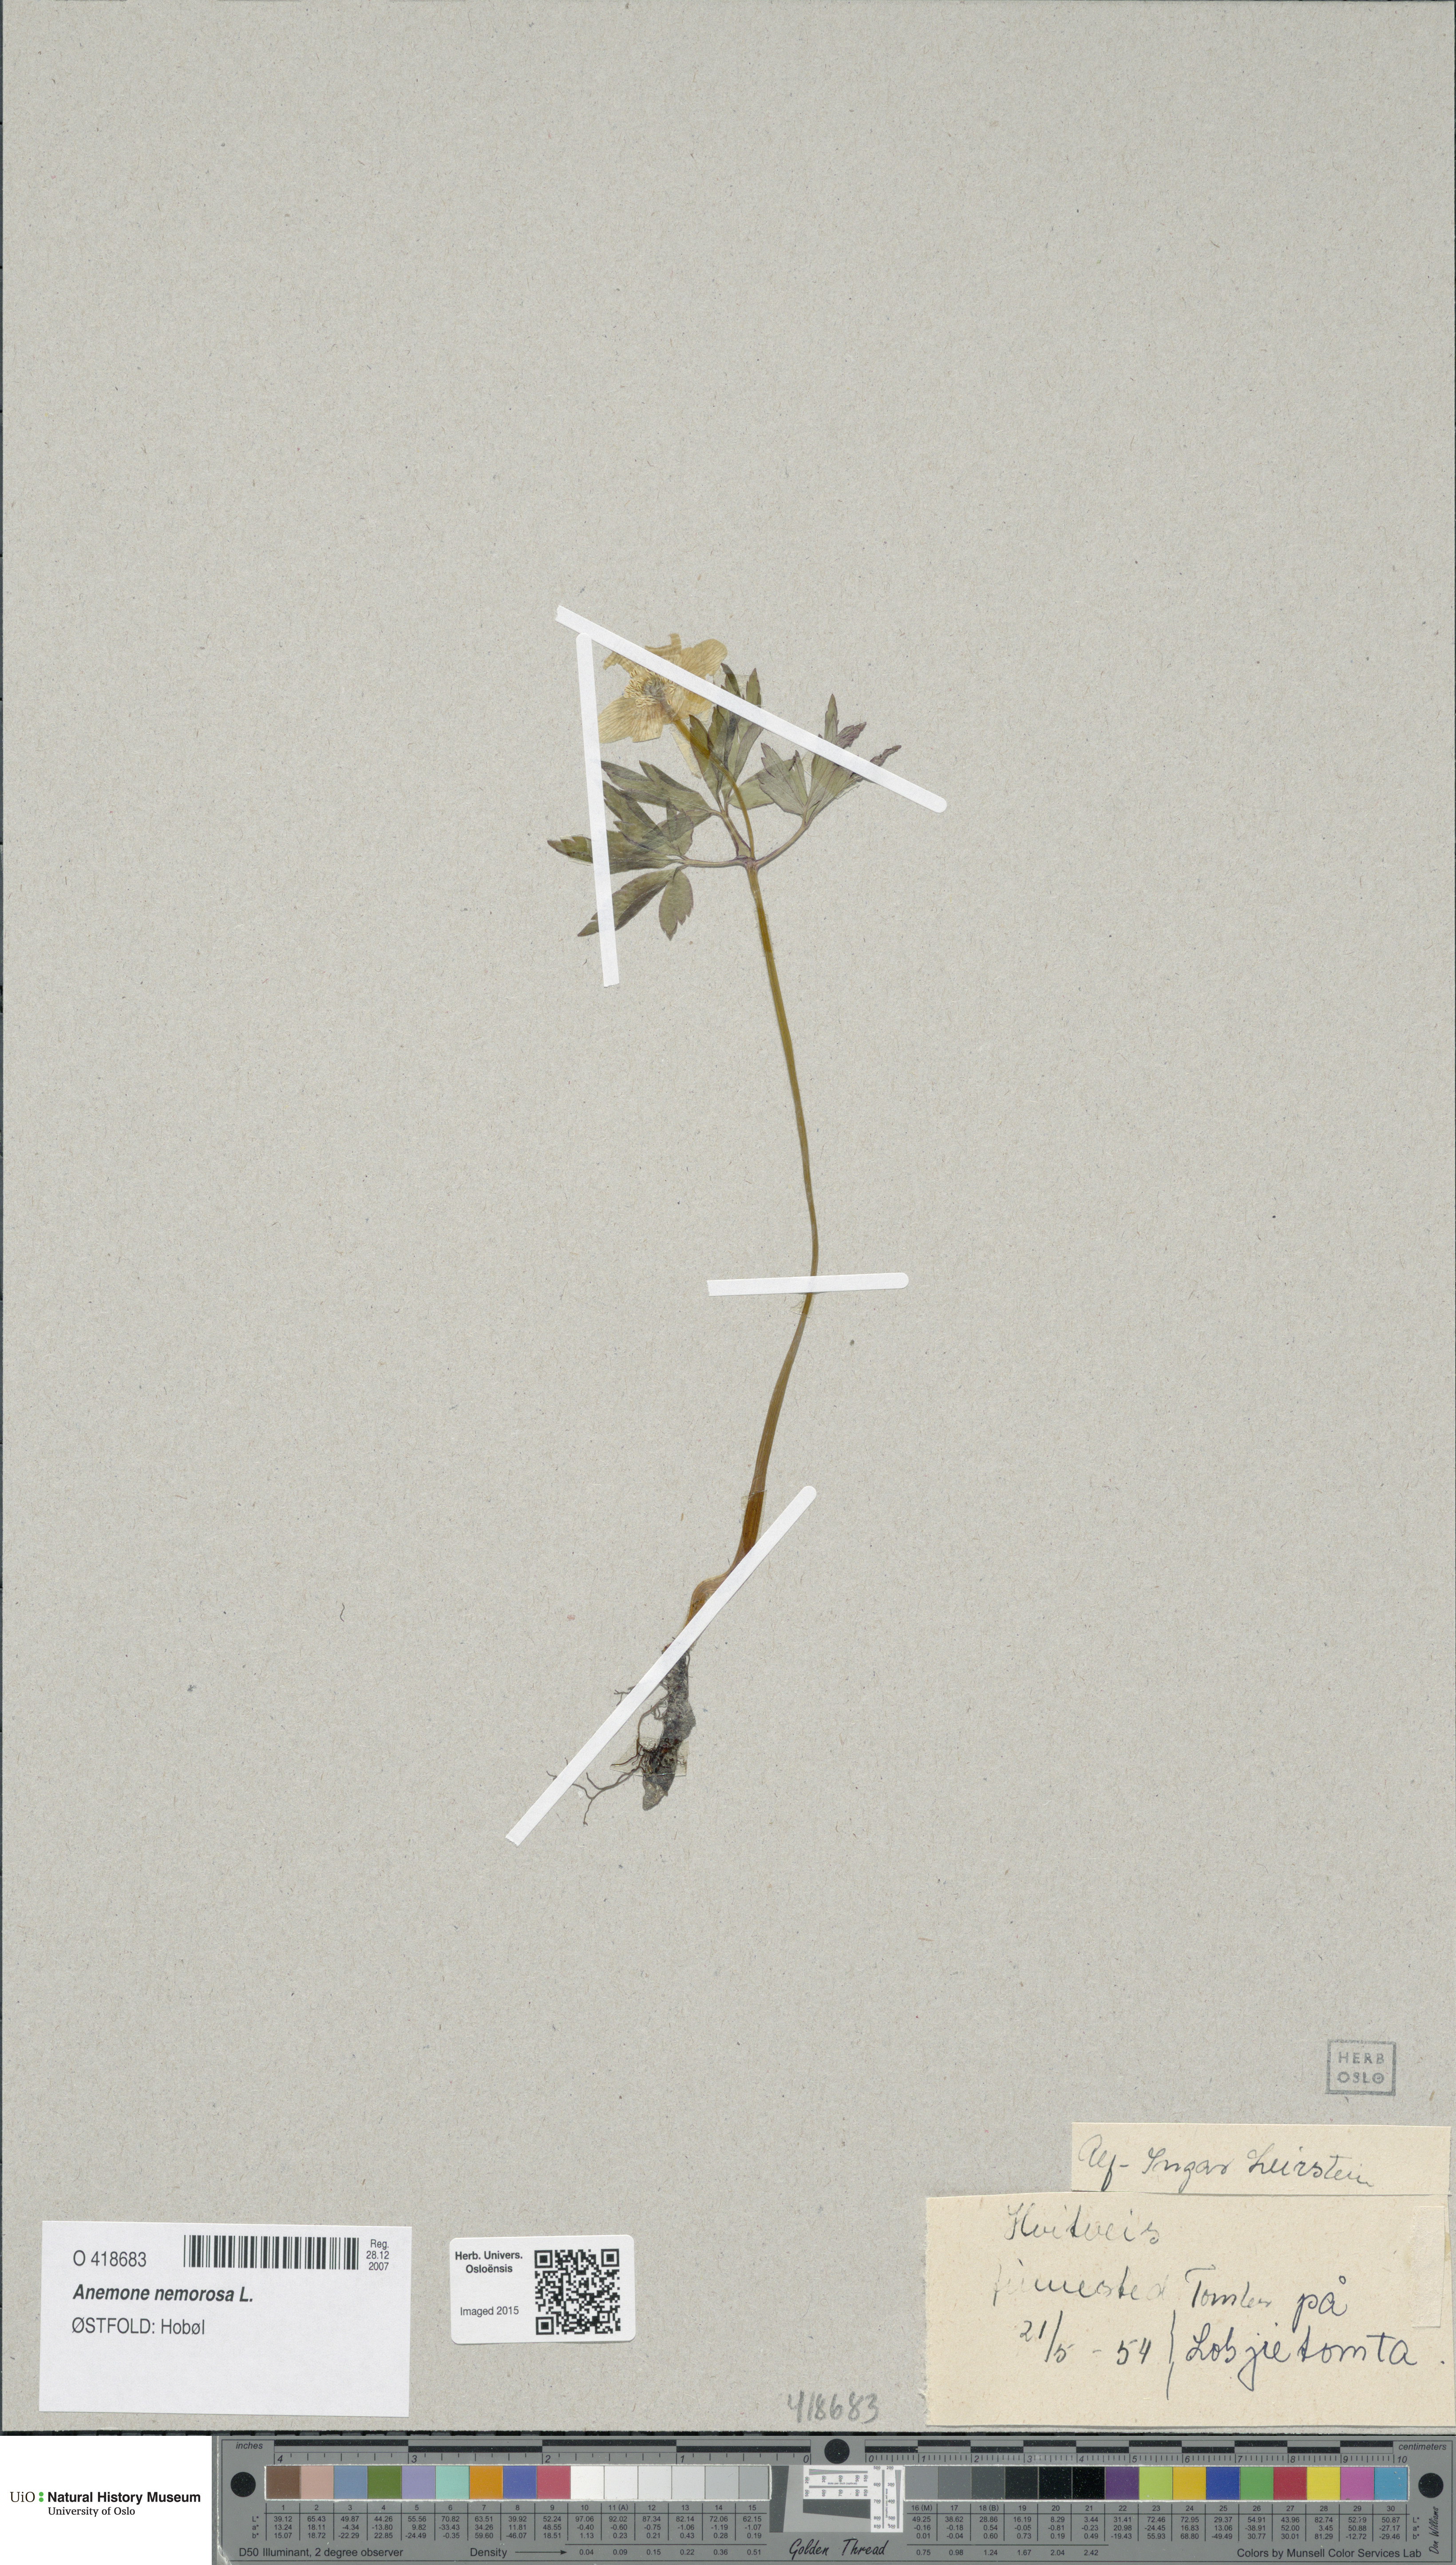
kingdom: Plantae
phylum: Tracheophyta
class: Magnoliopsida
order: Ranunculales
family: Ranunculaceae
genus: Anemone
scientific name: Anemone nemorosa
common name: Wood anemone
